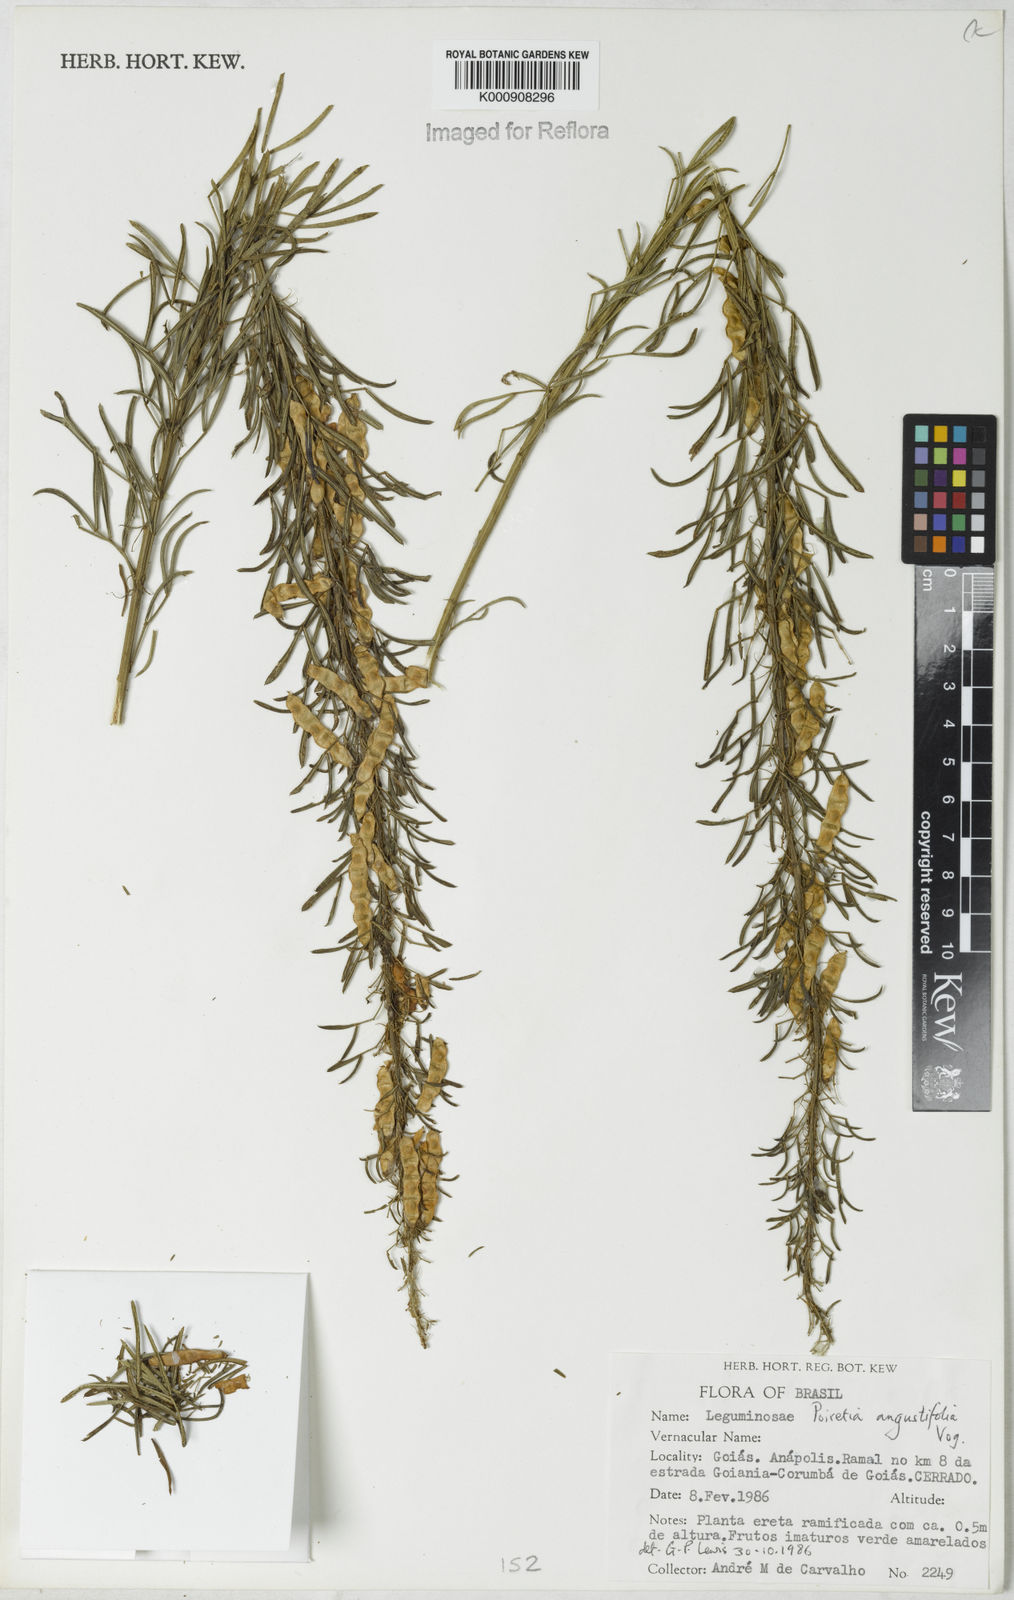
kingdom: Plantae
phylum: Tracheophyta
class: Magnoliopsida
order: Fabales
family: Fabaceae
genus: Poiretia
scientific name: Poiretia angustifolia
